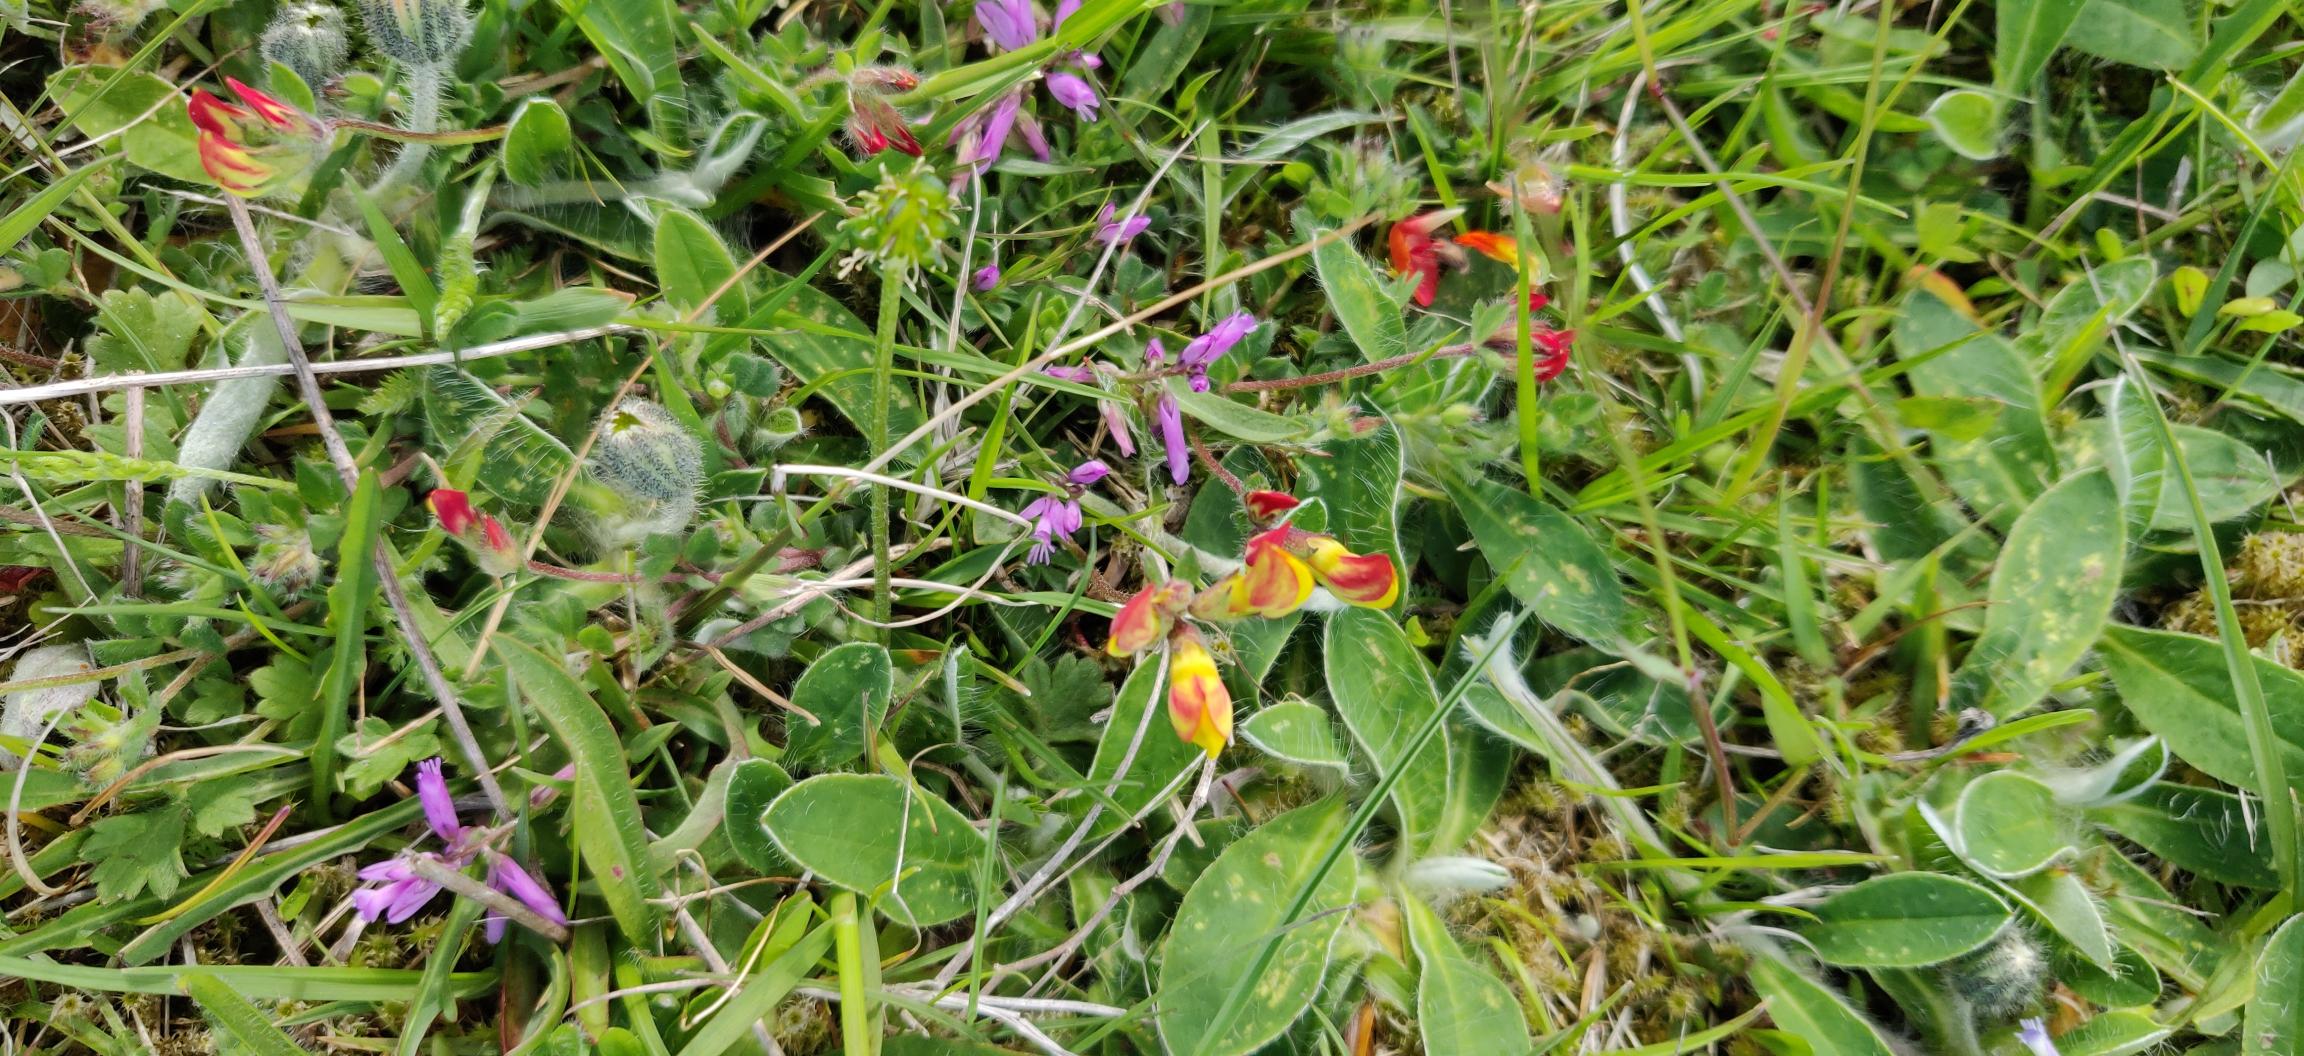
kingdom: Plantae
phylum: Tracheophyta
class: Magnoliopsida
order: Fabales
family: Fabaceae
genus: Lotus
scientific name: Lotus corniculatus
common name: Almindelig kællingetand
